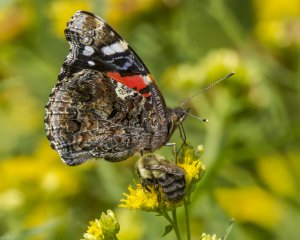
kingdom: Animalia
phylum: Arthropoda
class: Insecta
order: Lepidoptera
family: Nymphalidae
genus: Vanessa
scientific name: Vanessa atalanta
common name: Red Admiral
